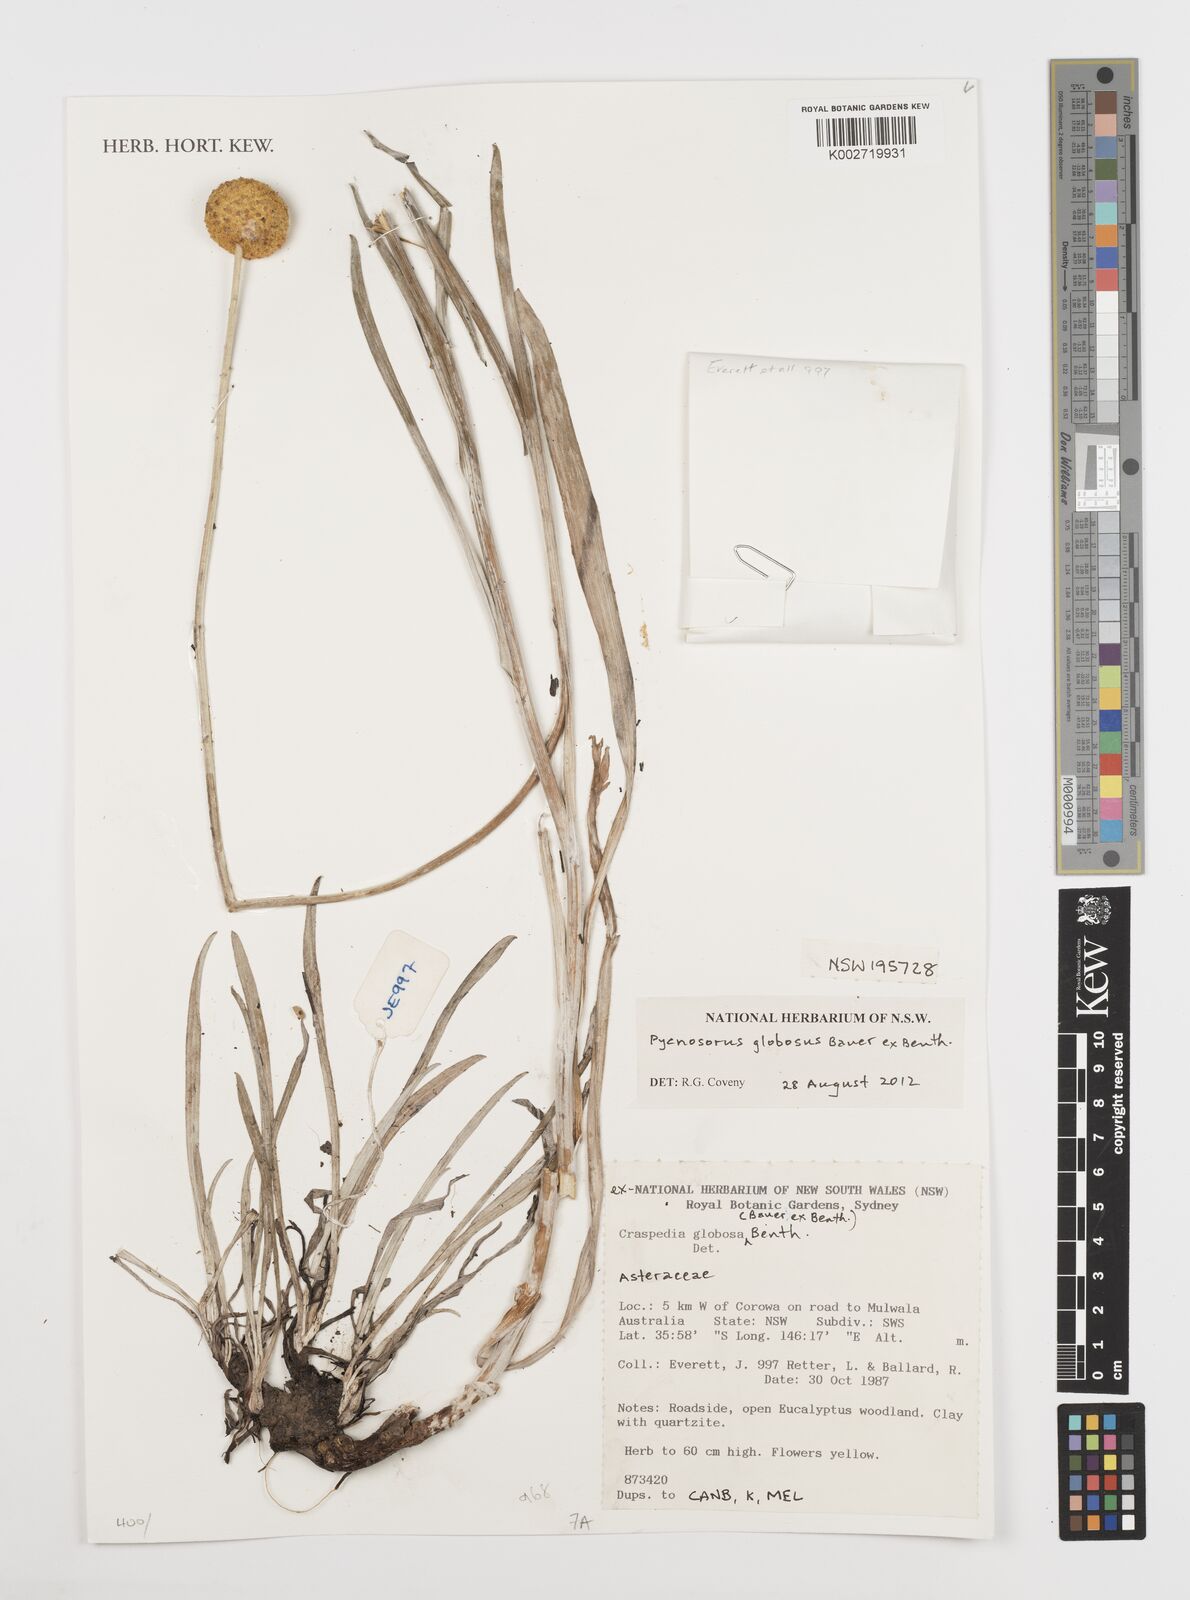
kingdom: Plantae
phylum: Tracheophyta
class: Magnoliopsida
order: Asterales
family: Asteraceae
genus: Pycnosorus
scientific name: Pycnosorus globosus
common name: Drumsticks
